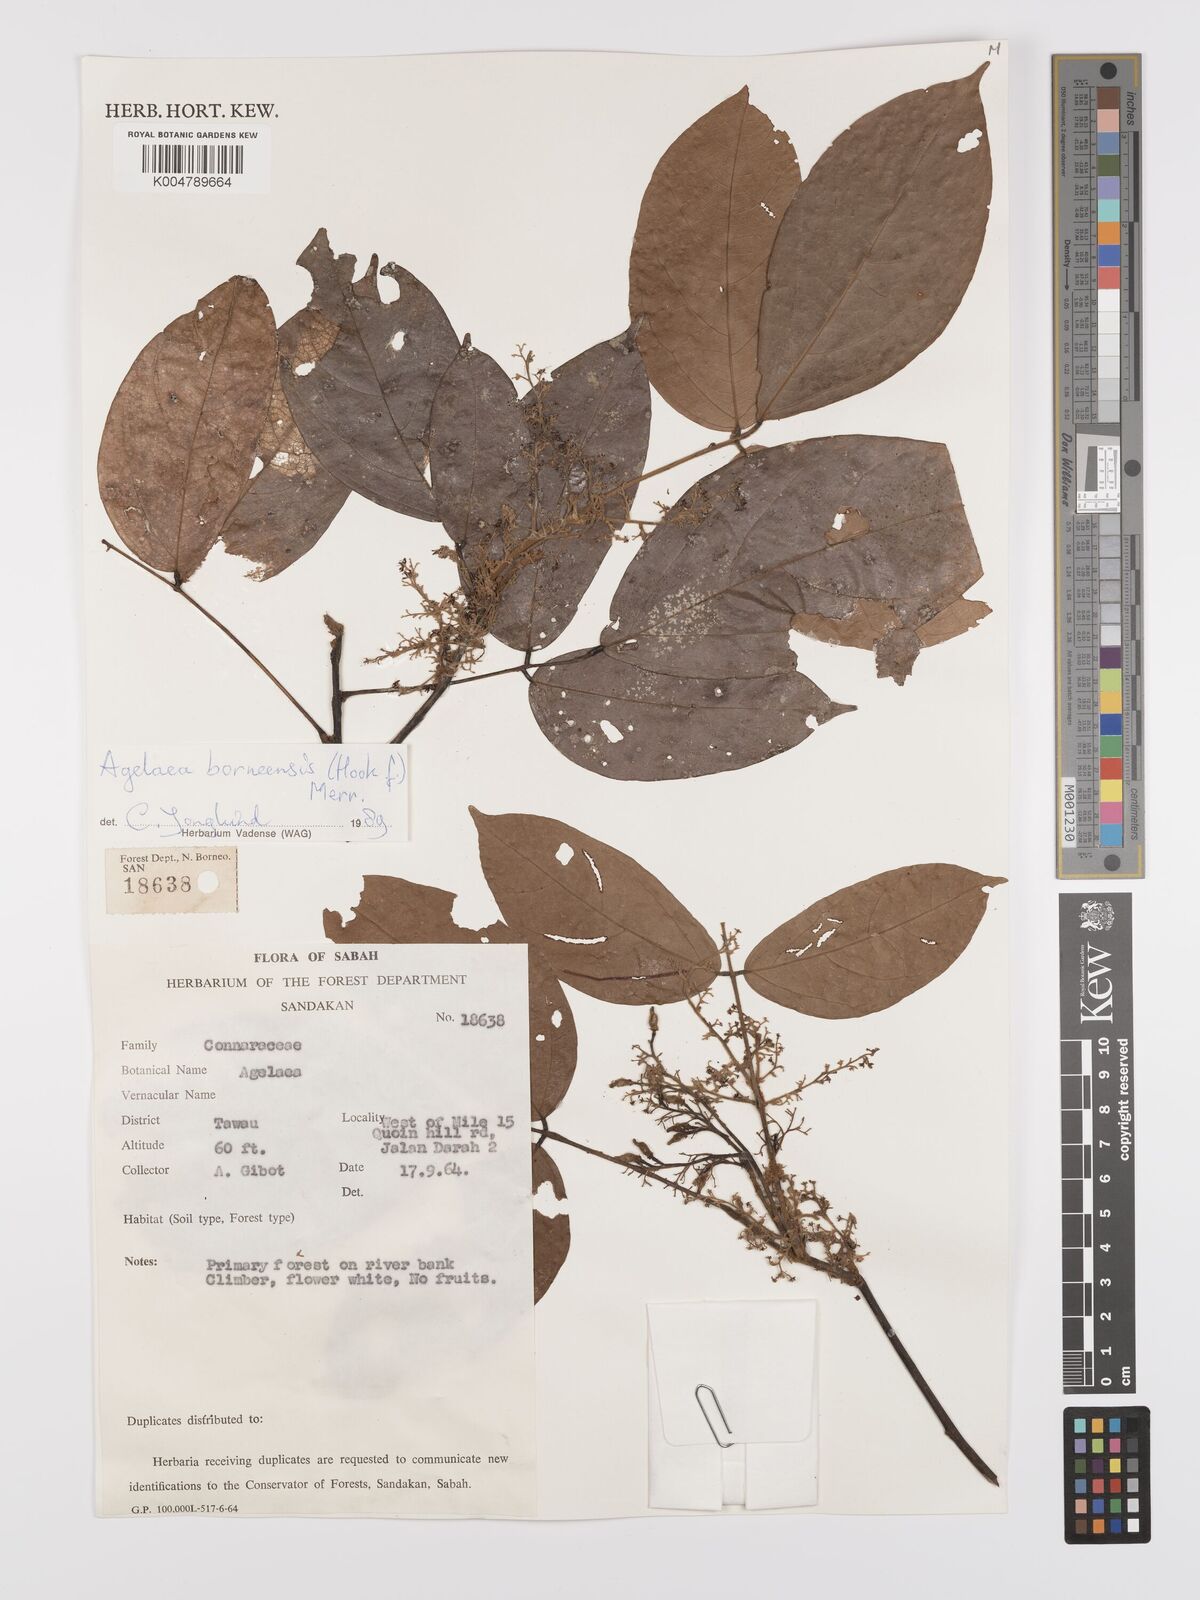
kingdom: Plantae
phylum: Tracheophyta
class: Magnoliopsida
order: Oxalidales
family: Connaraceae
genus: Agelaea
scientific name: Agelaea borneensis
